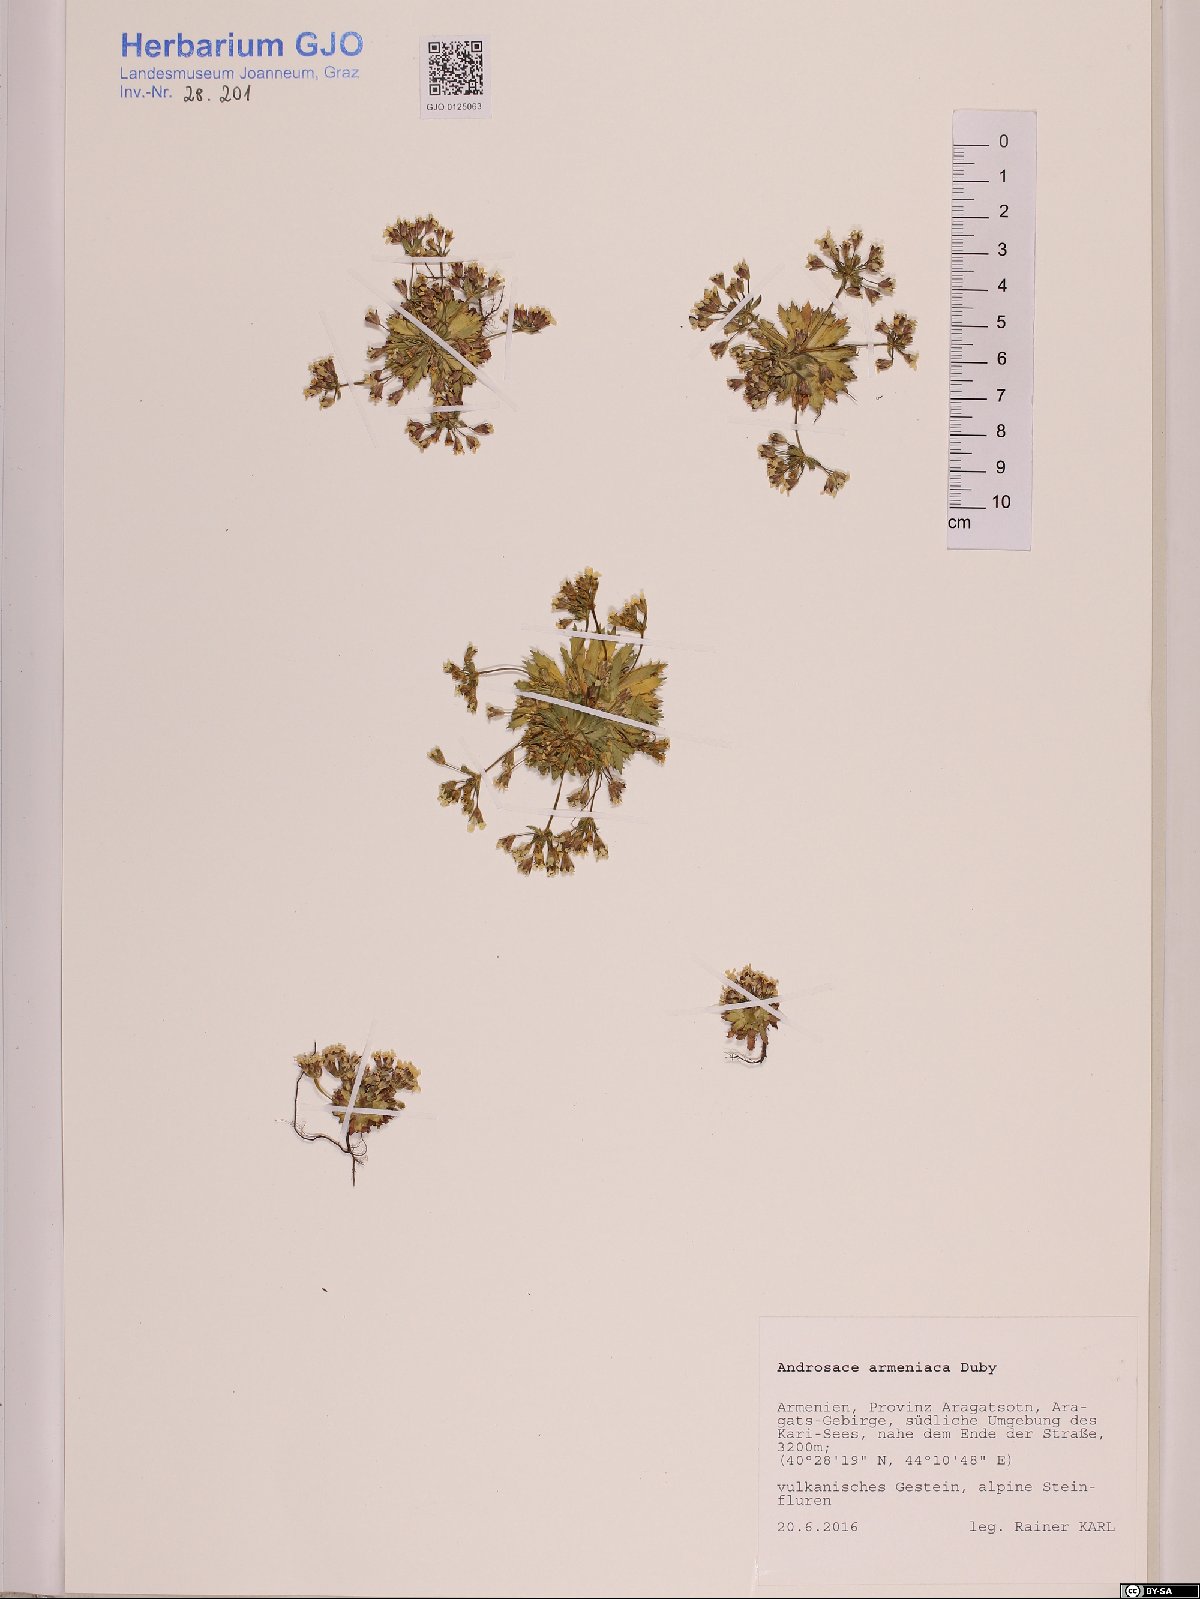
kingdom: Plantae
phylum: Tracheophyta
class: Magnoliopsida
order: Ericales
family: Primulaceae
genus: Androsace
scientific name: Androsace armeniaca
